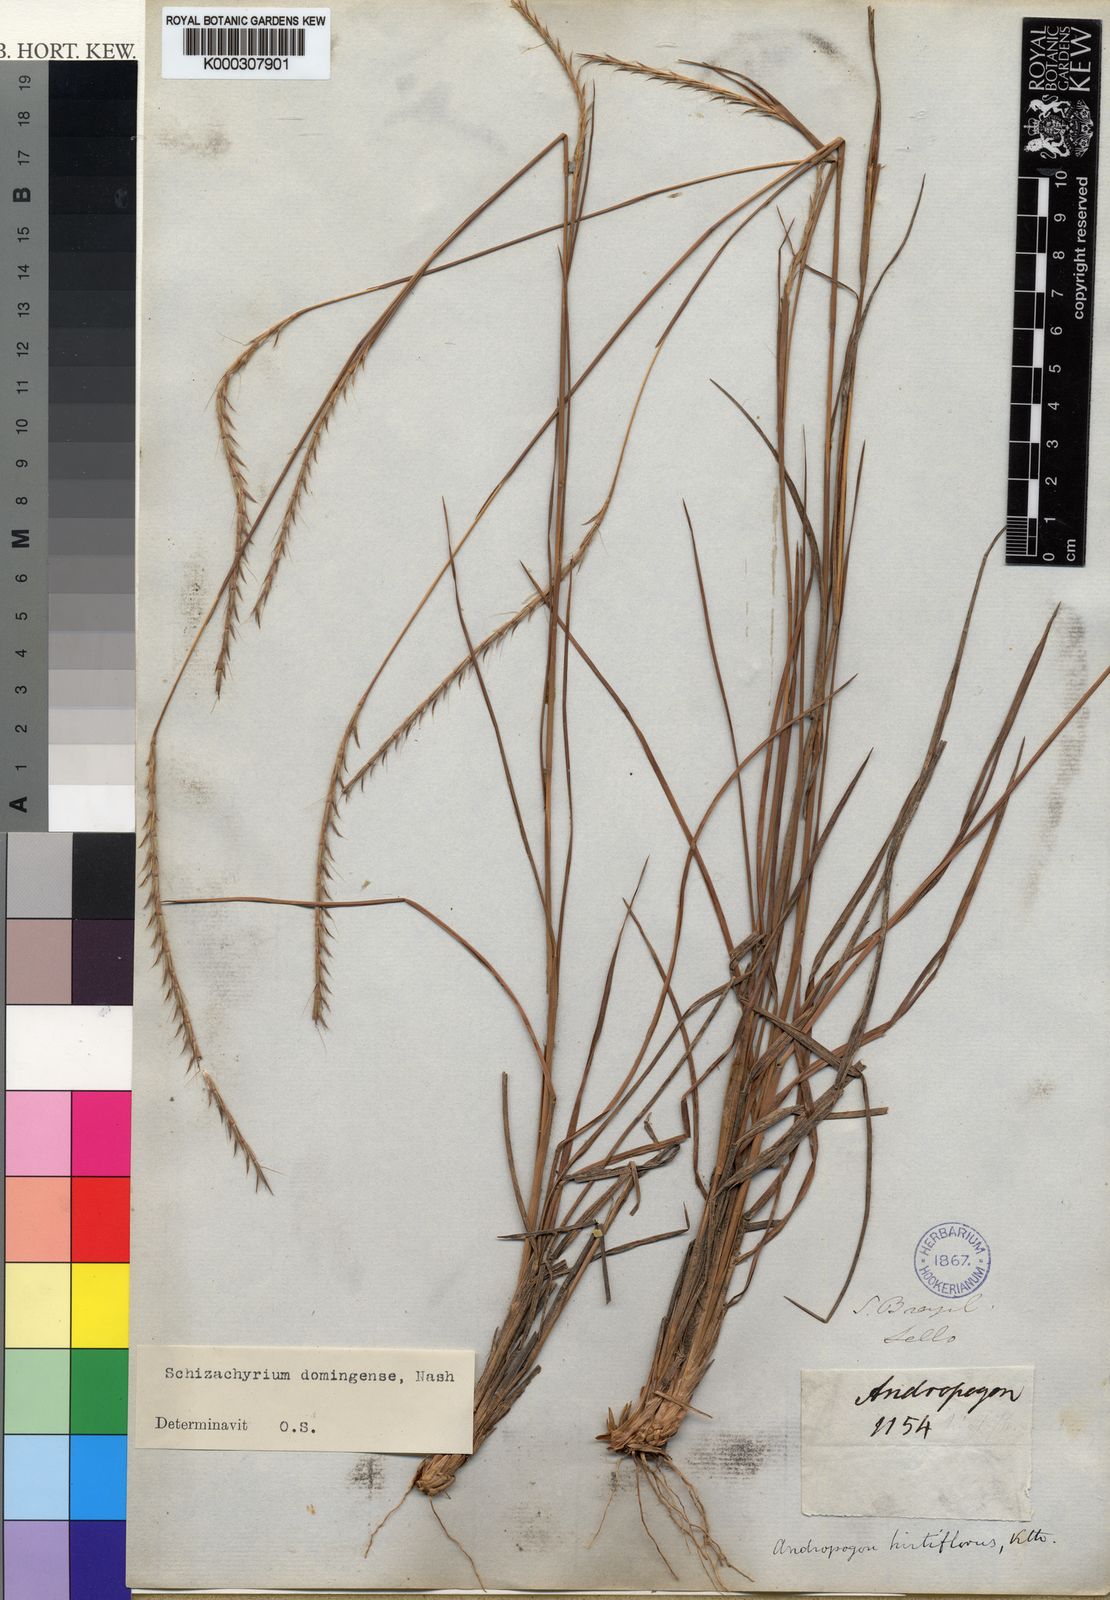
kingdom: Plantae
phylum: Tracheophyta
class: Liliopsida
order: Poales
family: Poaceae
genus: Schizachyrium
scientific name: Schizachyrium sanguineum
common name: Crimson bluestem
